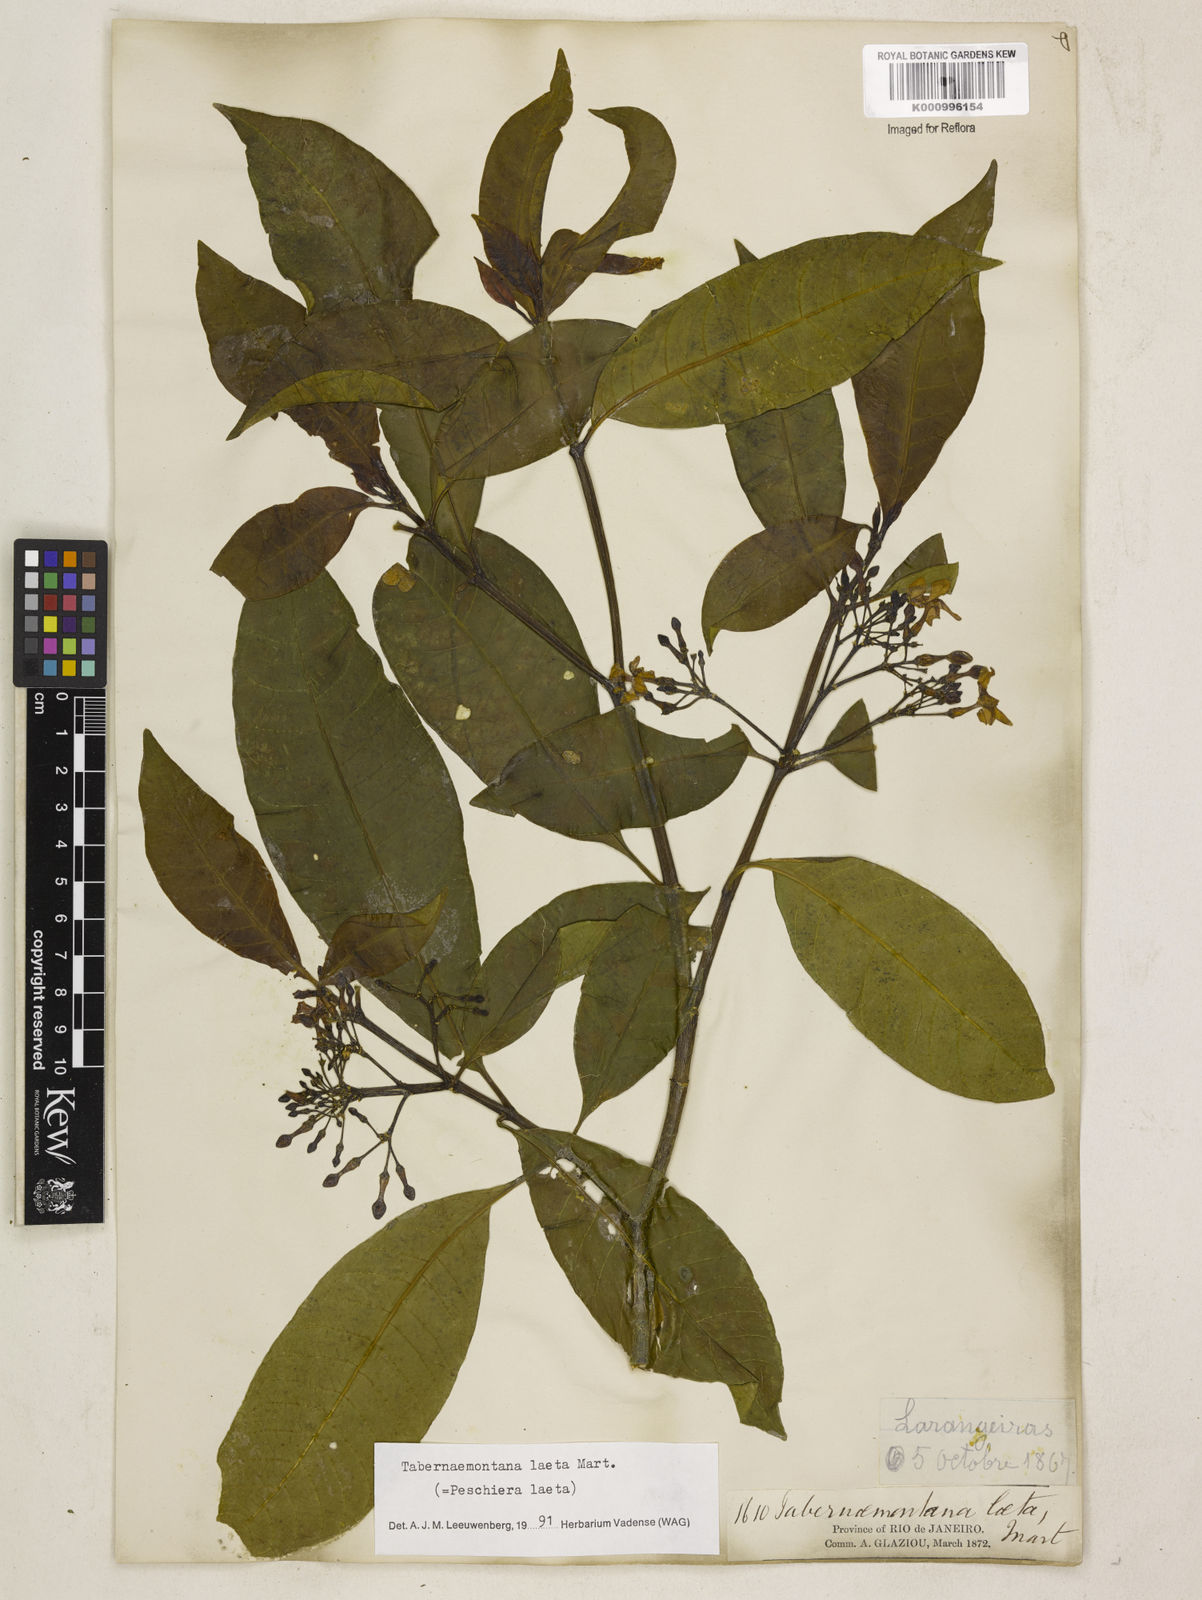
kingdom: Plantae
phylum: Tracheophyta
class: Magnoliopsida
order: Gentianales
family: Apocynaceae
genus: Tabernaemontana
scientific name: Tabernaemontana laeta
